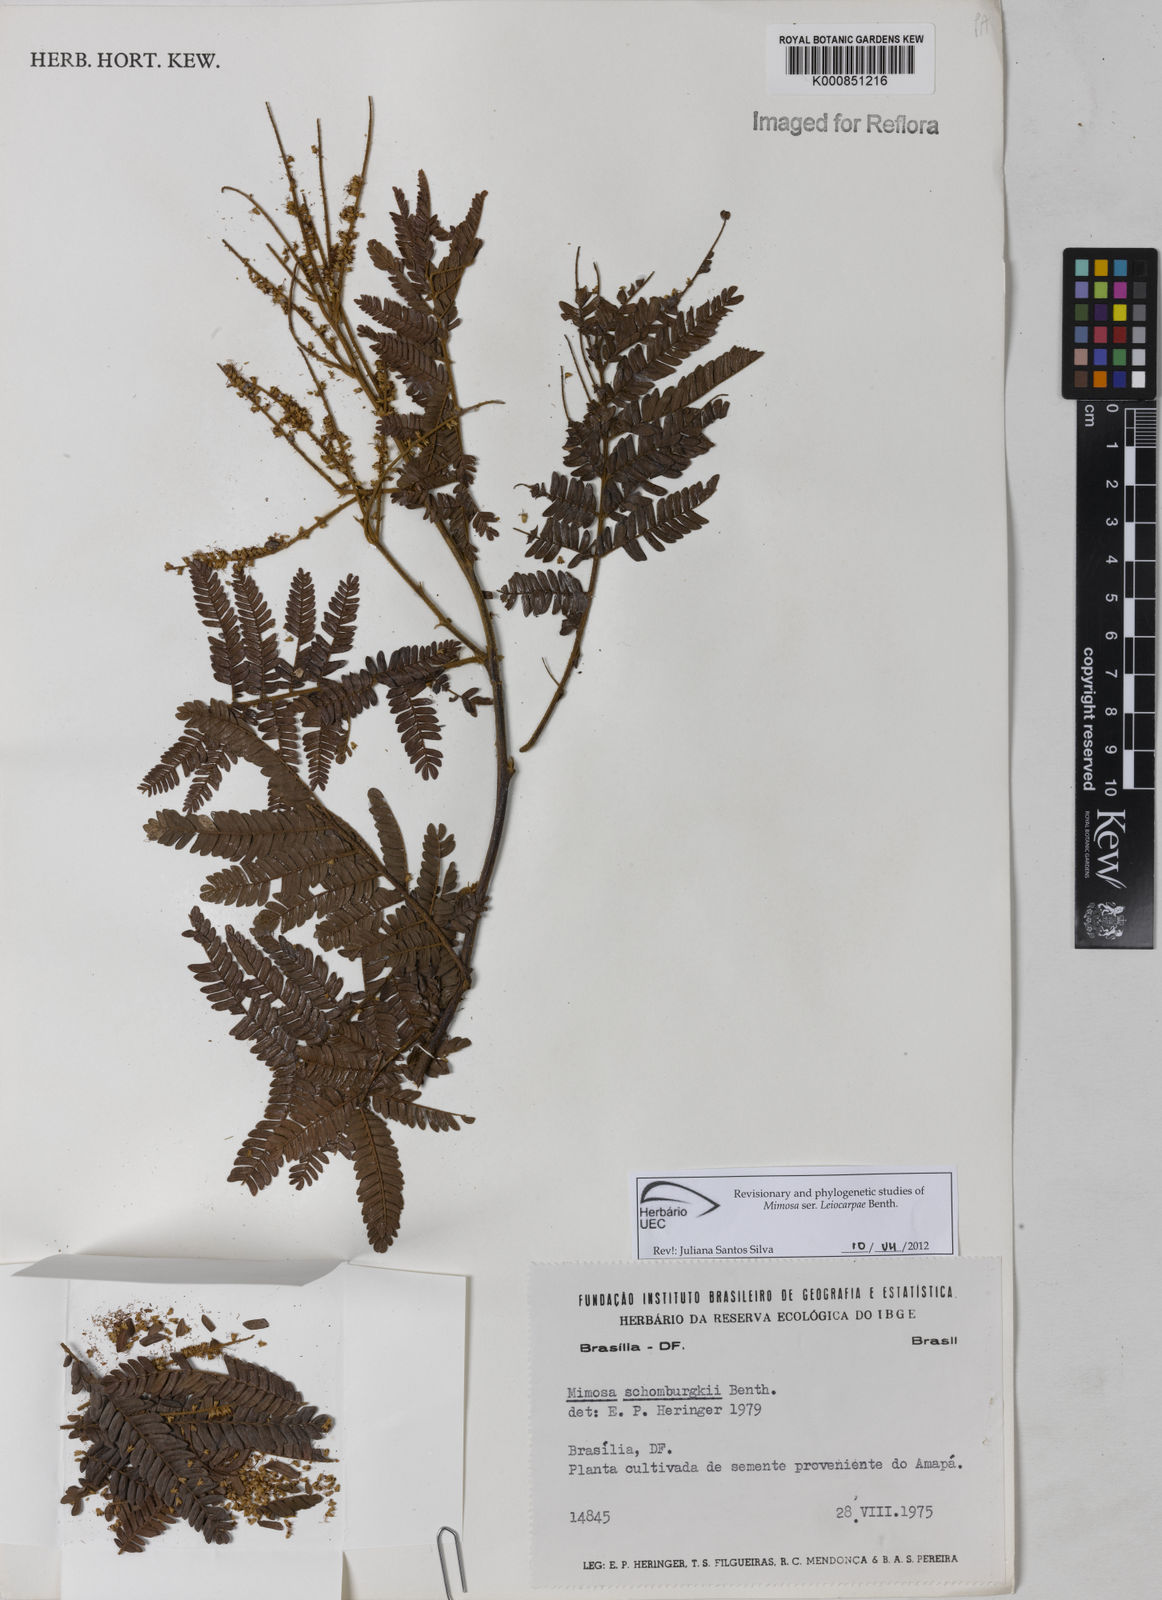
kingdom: Plantae
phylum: Tracheophyta
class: Magnoliopsida
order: Fabales
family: Fabaceae
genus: Mimosa
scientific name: Mimosa schomburgkii
